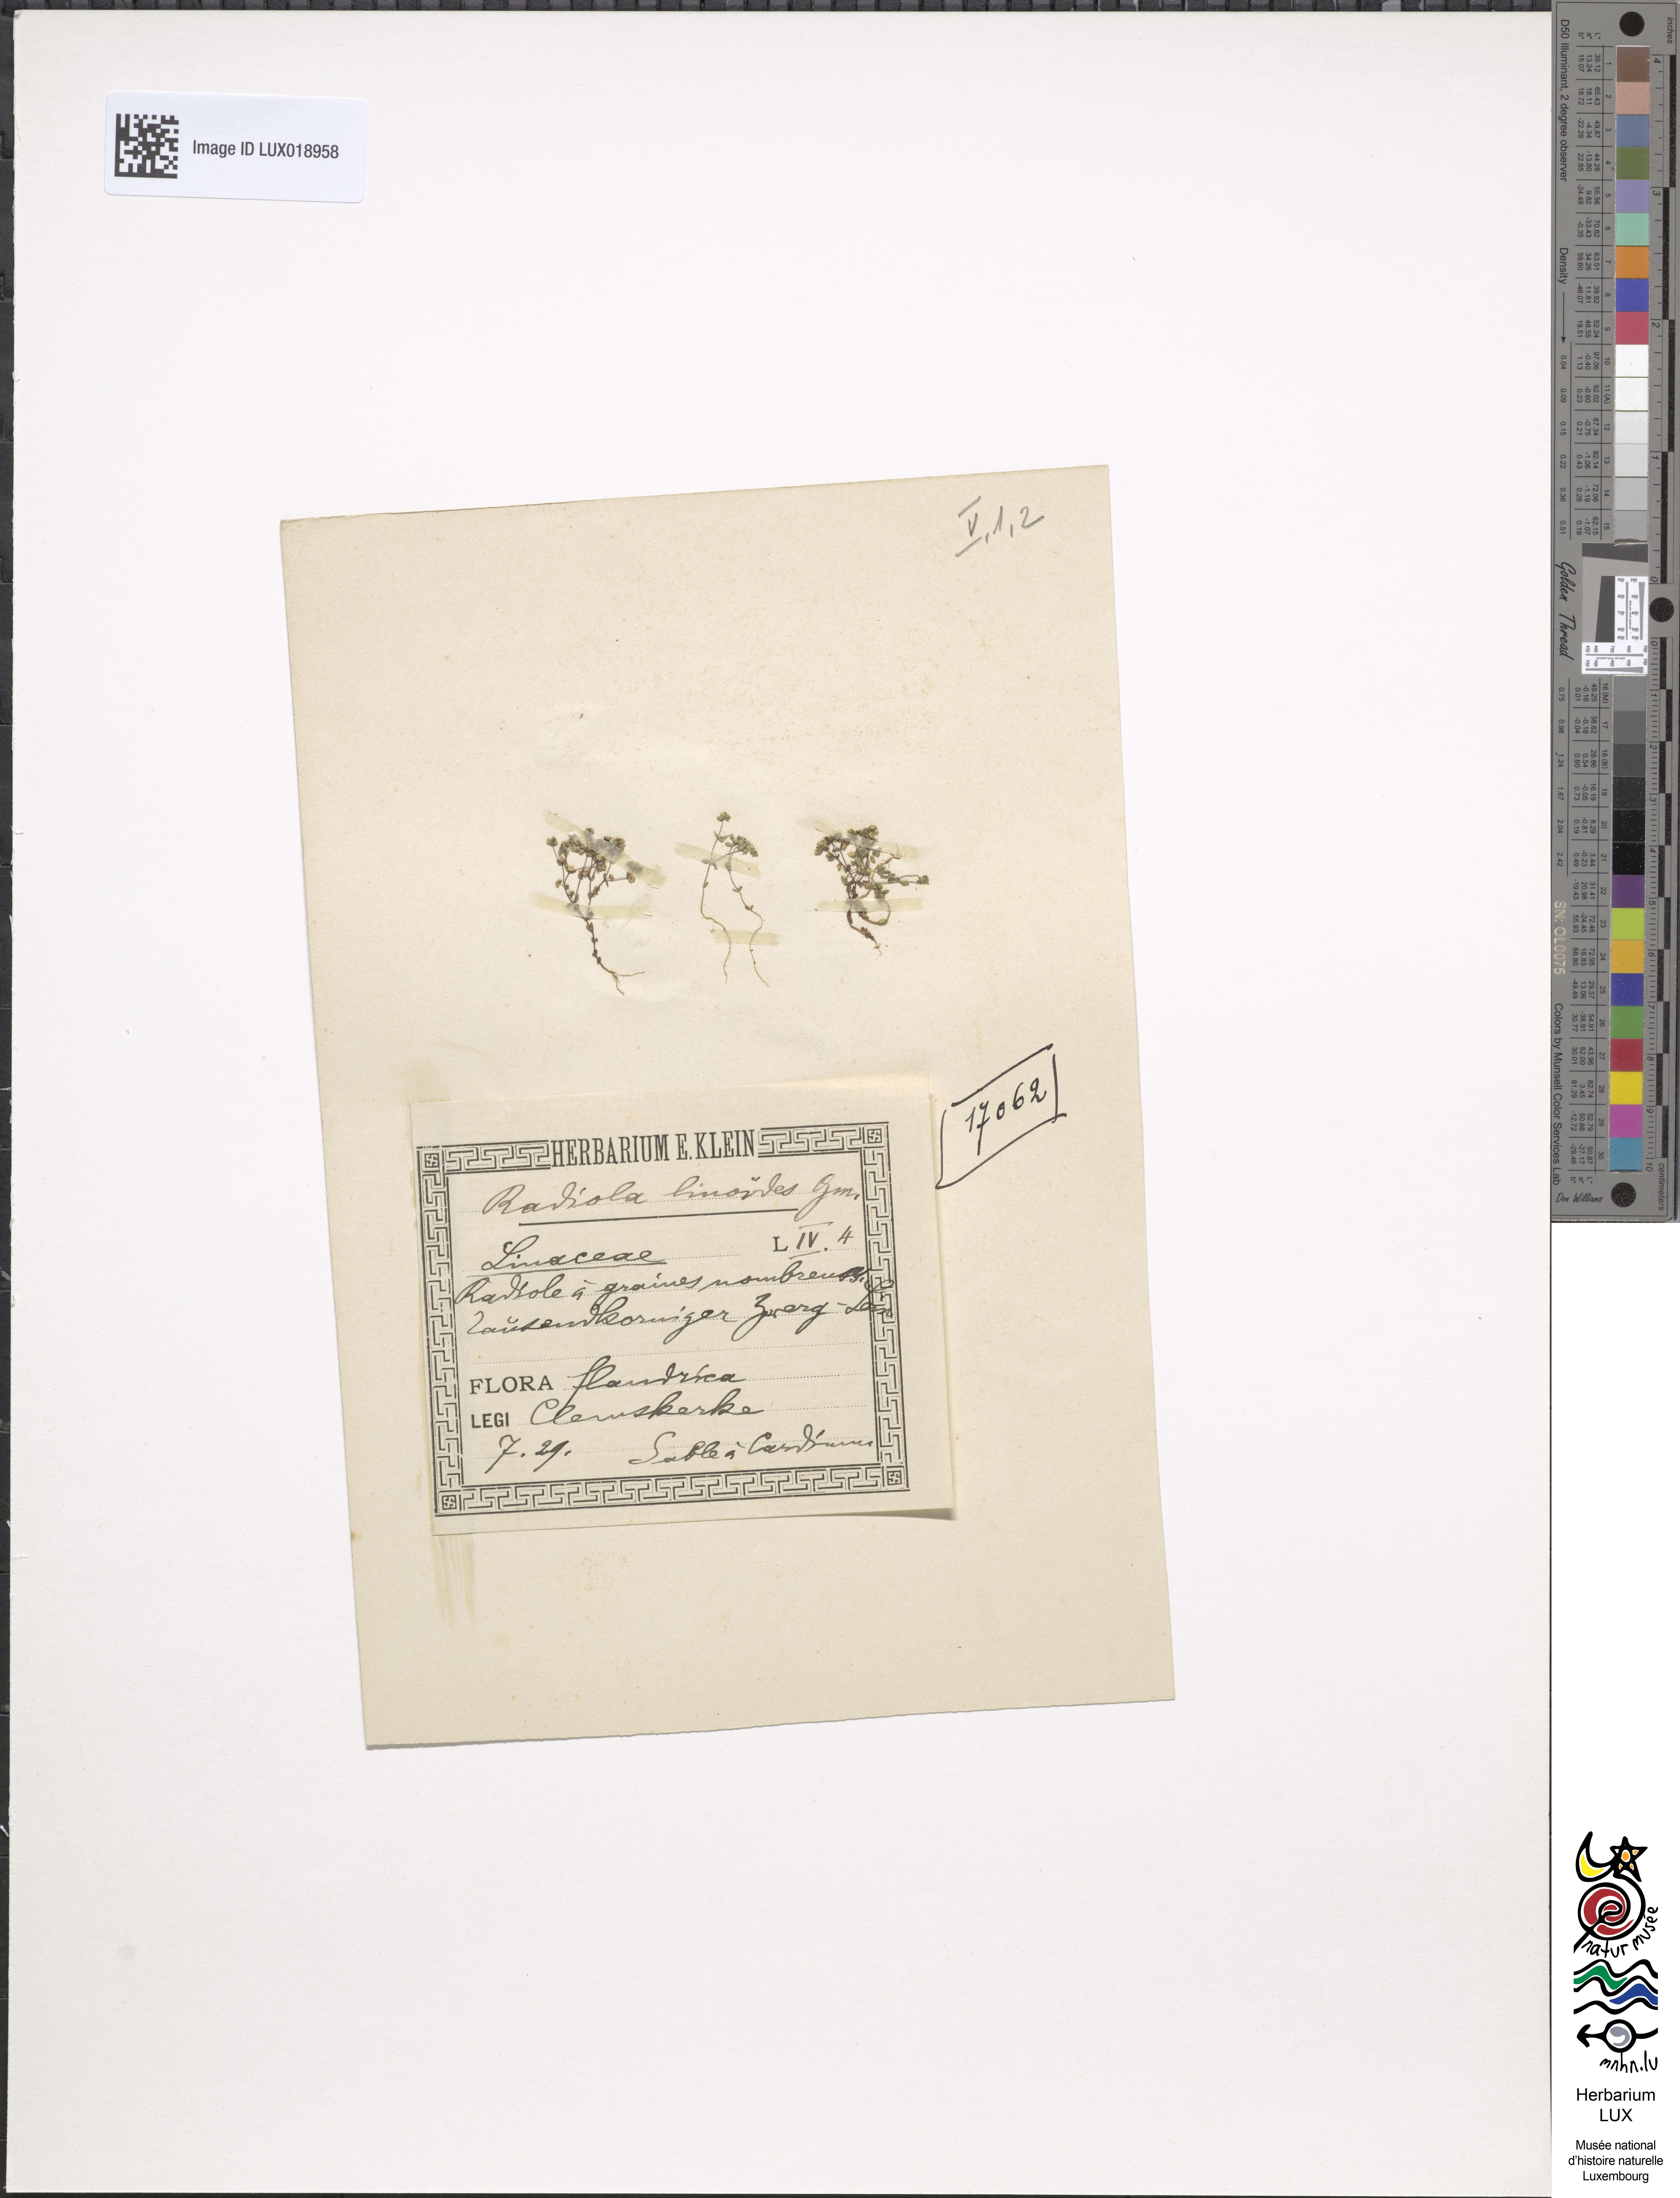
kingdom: Plantae
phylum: Tracheophyta
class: Magnoliopsida
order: Malpighiales
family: Linaceae
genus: Radiola
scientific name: Radiola linoides
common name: Allseed
